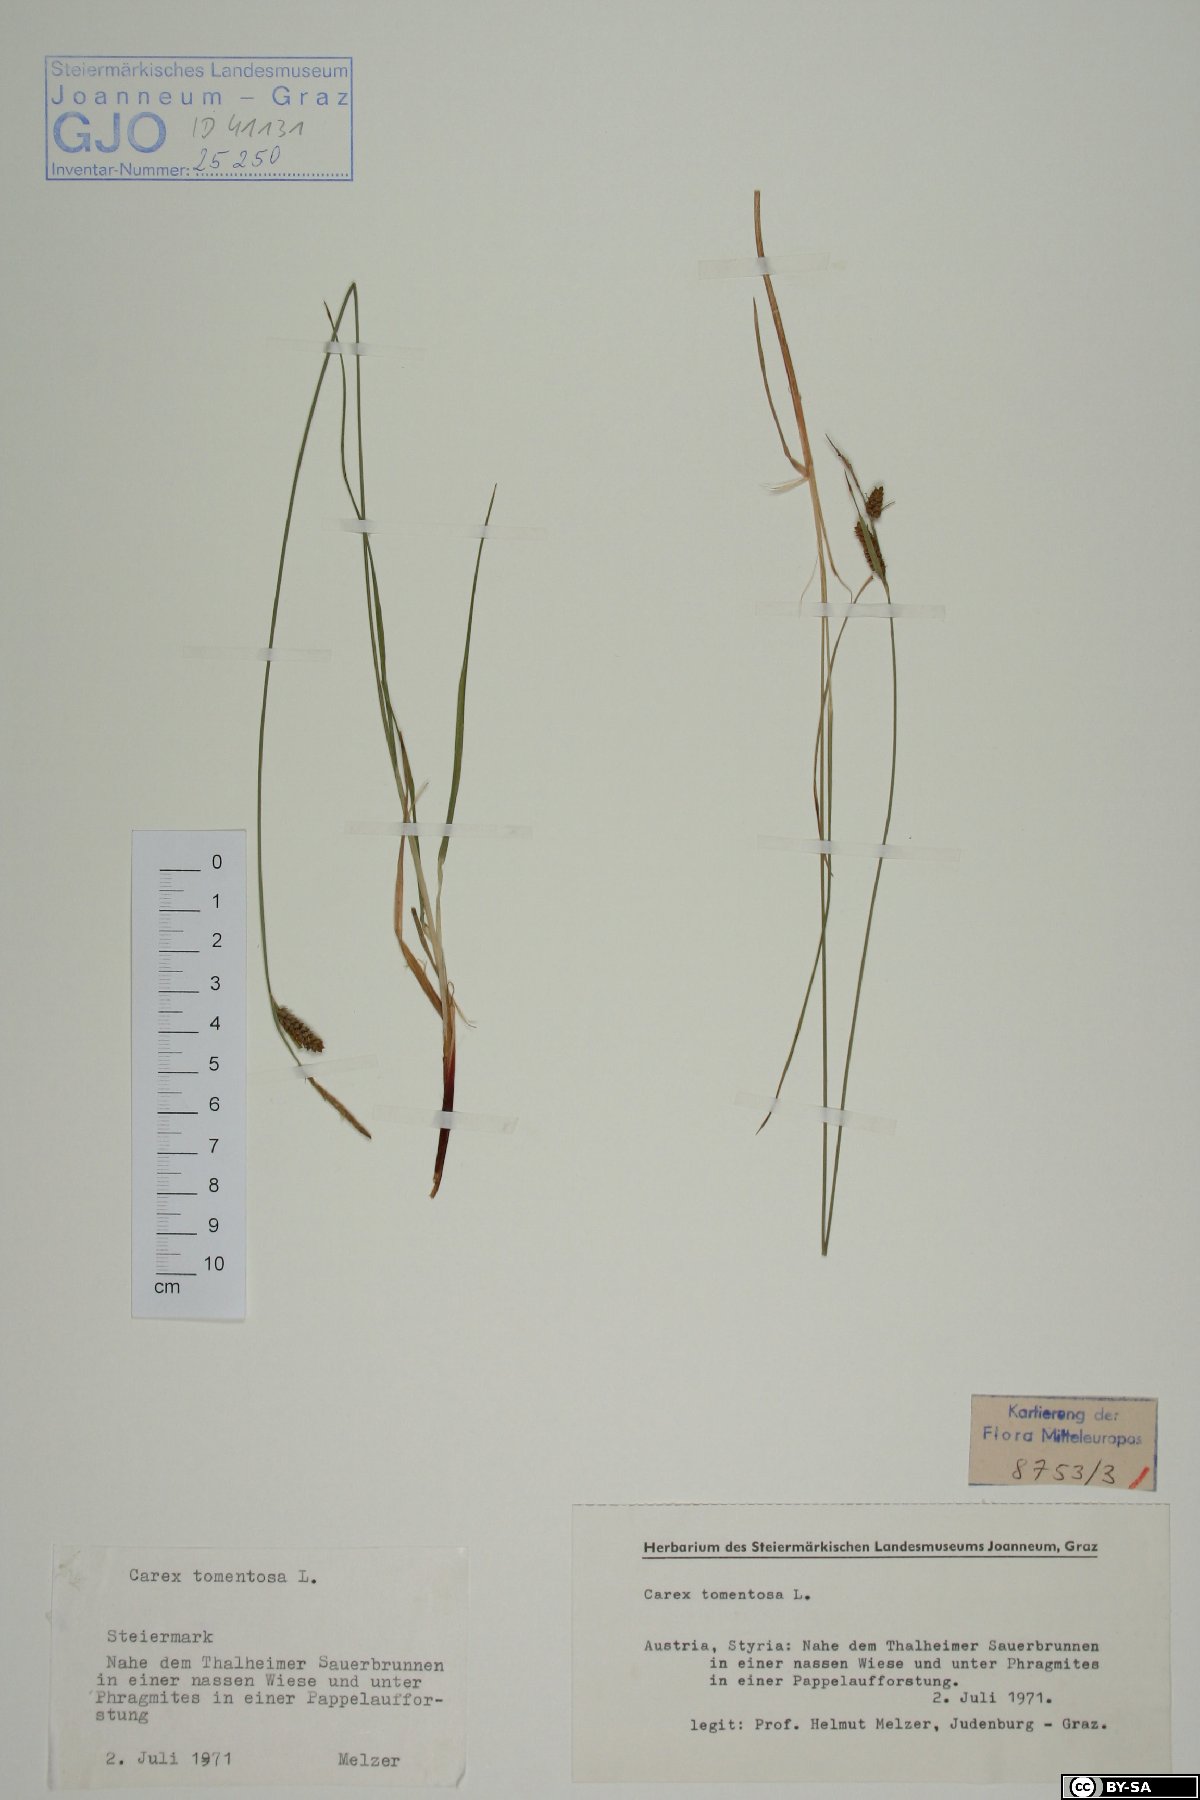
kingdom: Plantae
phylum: Tracheophyta
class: Liliopsida
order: Poales
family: Cyperaceae
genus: Carex
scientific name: Carex tomentosa
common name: Downy-fruited sedge
